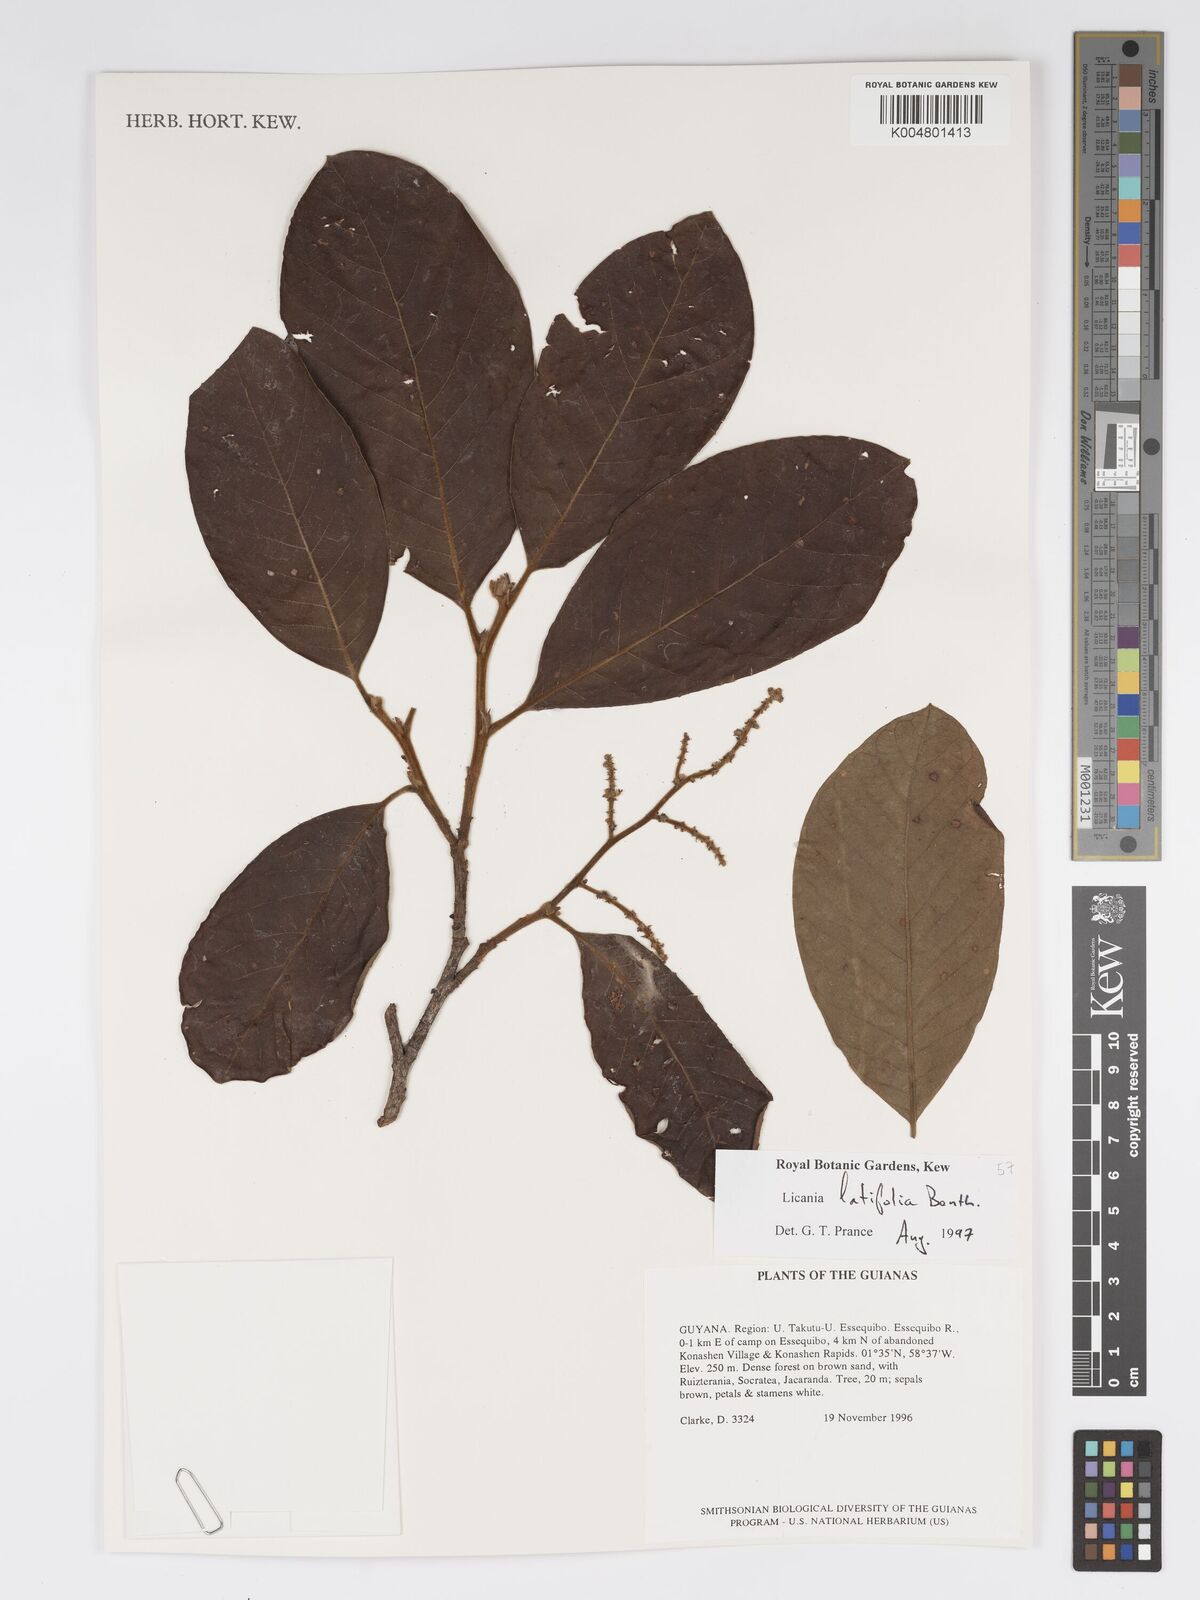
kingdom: Plantae
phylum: Tracheophyta
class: Magnoliopsida
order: Malpighiales
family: Chrysobalanaceae
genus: Hymenopus
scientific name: Hymenopus latifolius
